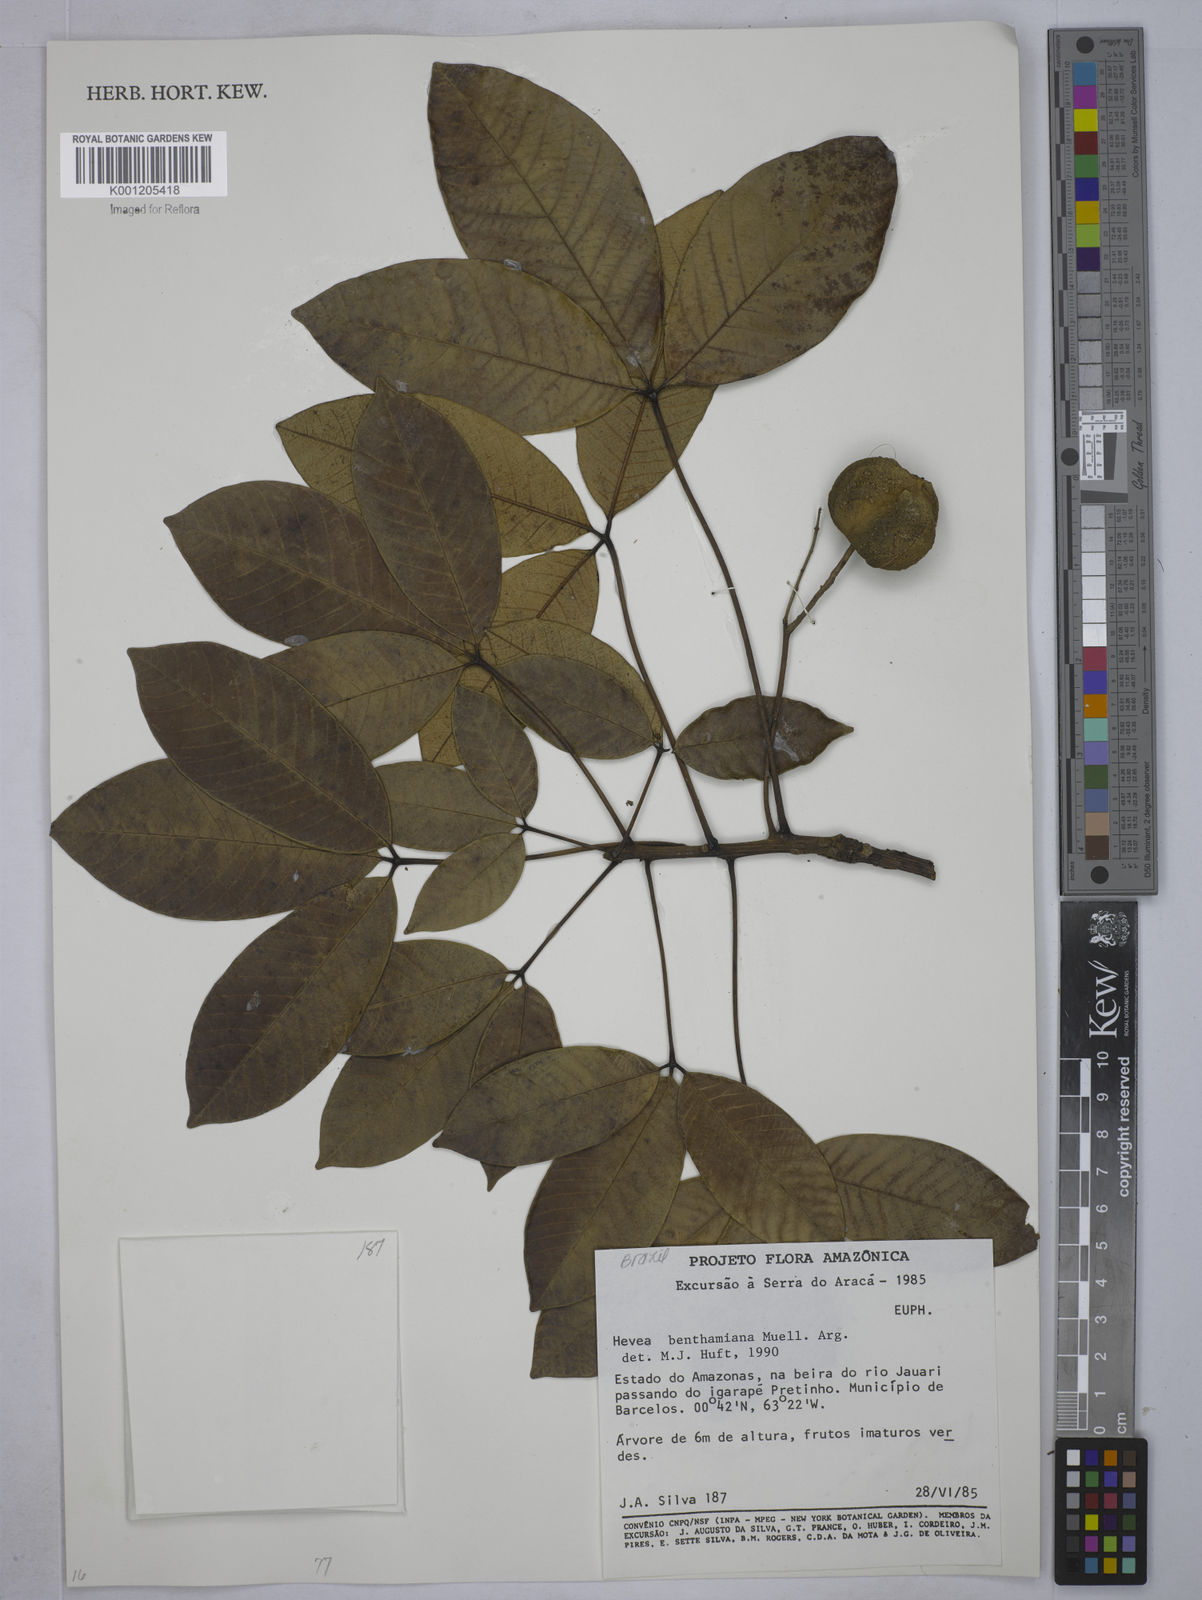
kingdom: Plantae
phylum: Tracheophyta
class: Magnoliopsida
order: Malpighiales
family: Euphorbiaceae
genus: Hevea
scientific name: Hevea
